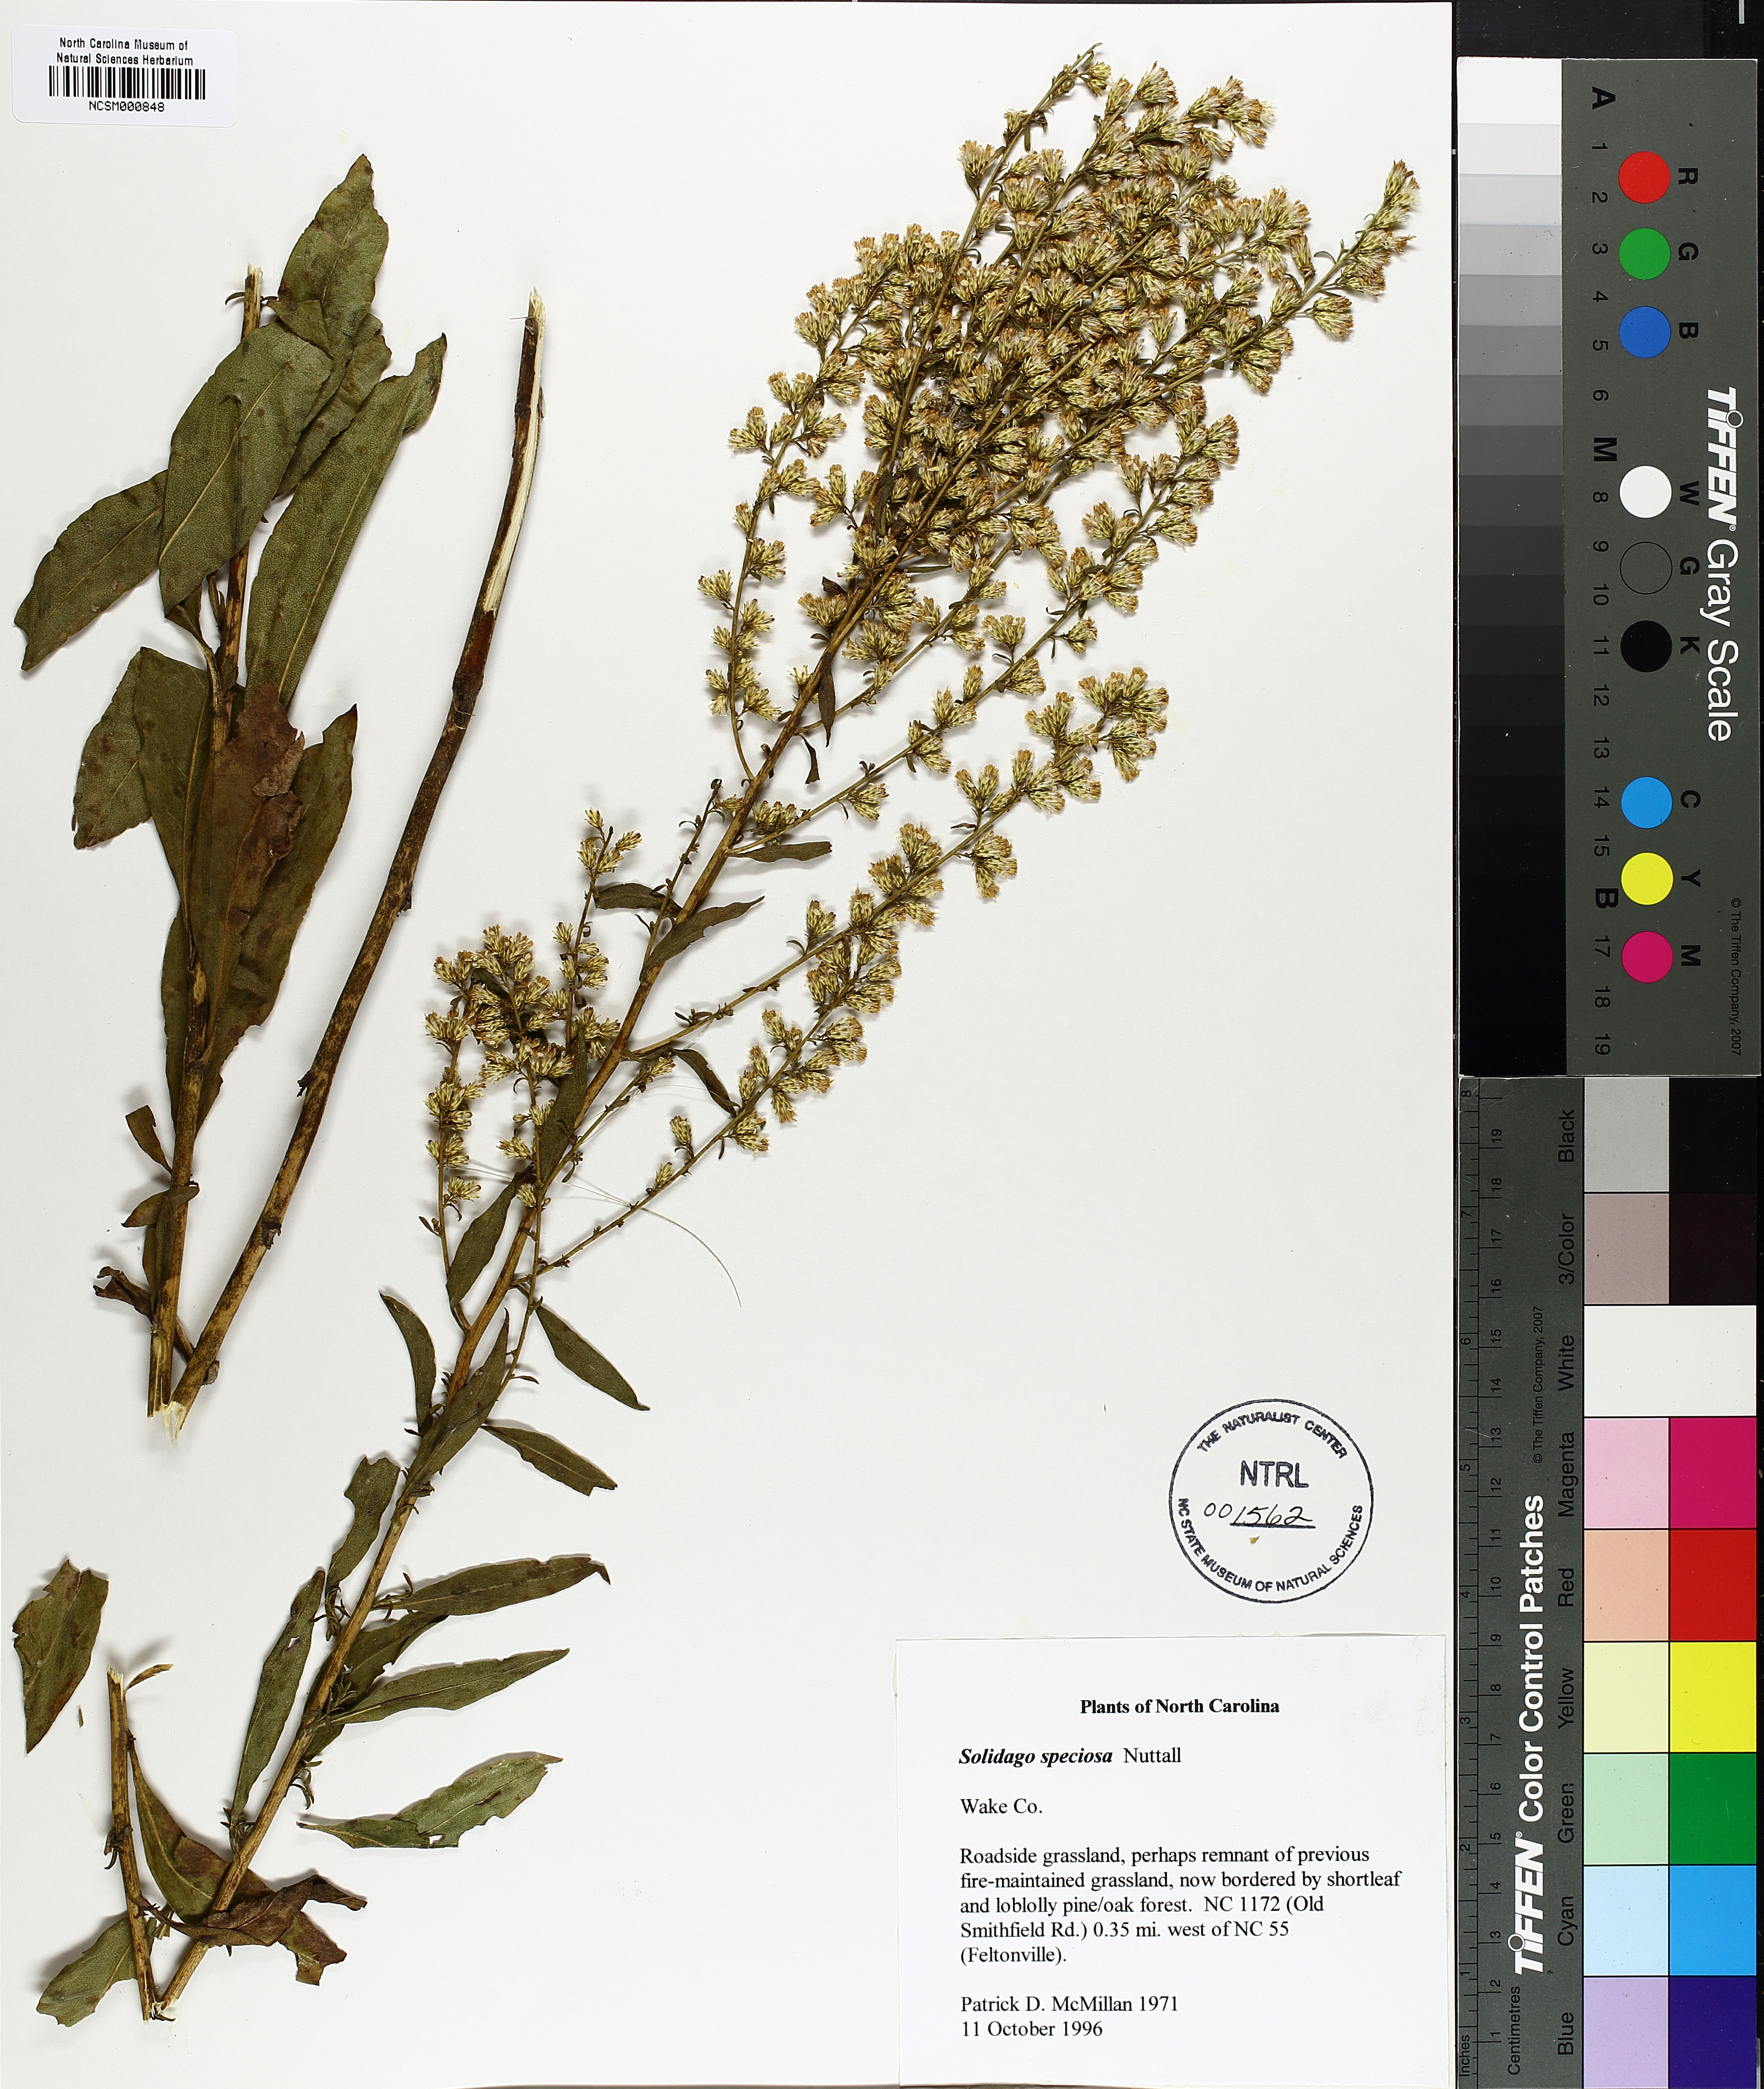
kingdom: Plantae
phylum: Tracheophyta
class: Magnoliopsida
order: Asterales
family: Asteraceae
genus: Solidago
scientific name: Solidago speciosa
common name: Showy goldenrod
